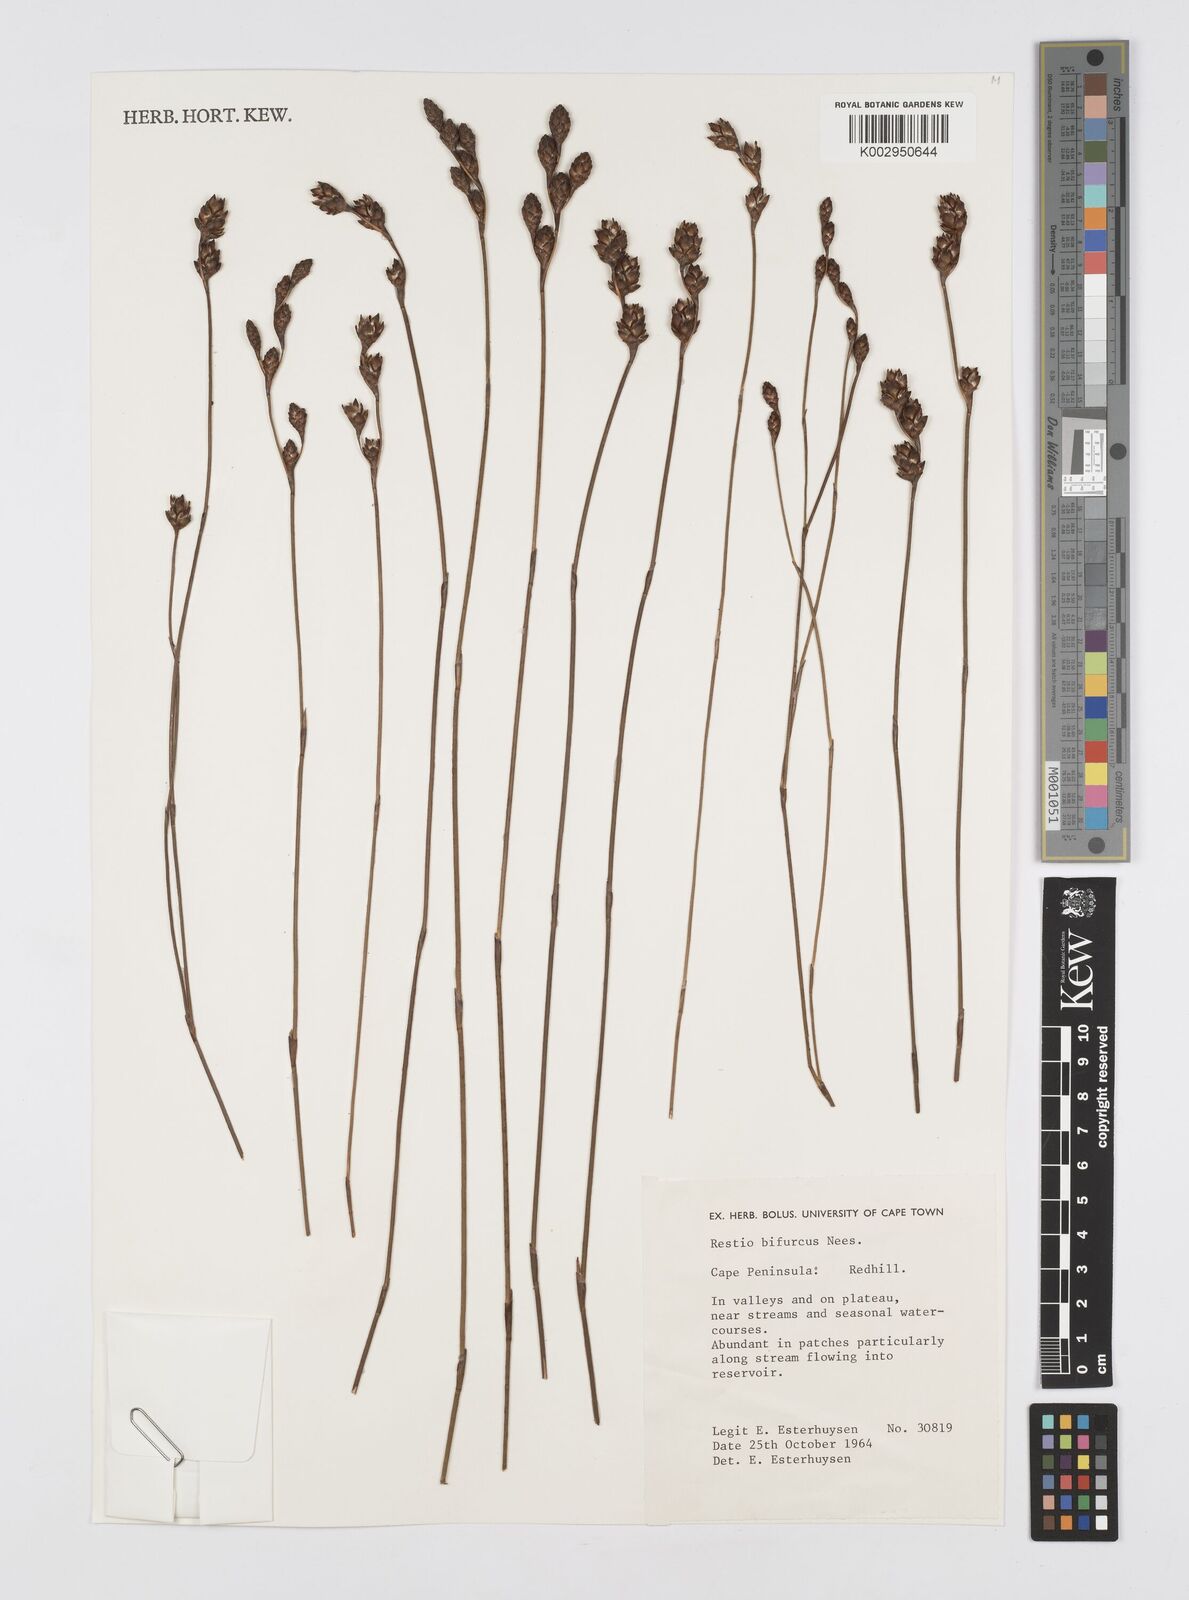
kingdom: Plantae
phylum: Tracheophyta
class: Liliopsida
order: Poales
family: Restionaceae
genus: Restio
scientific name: Restio bifurcus
